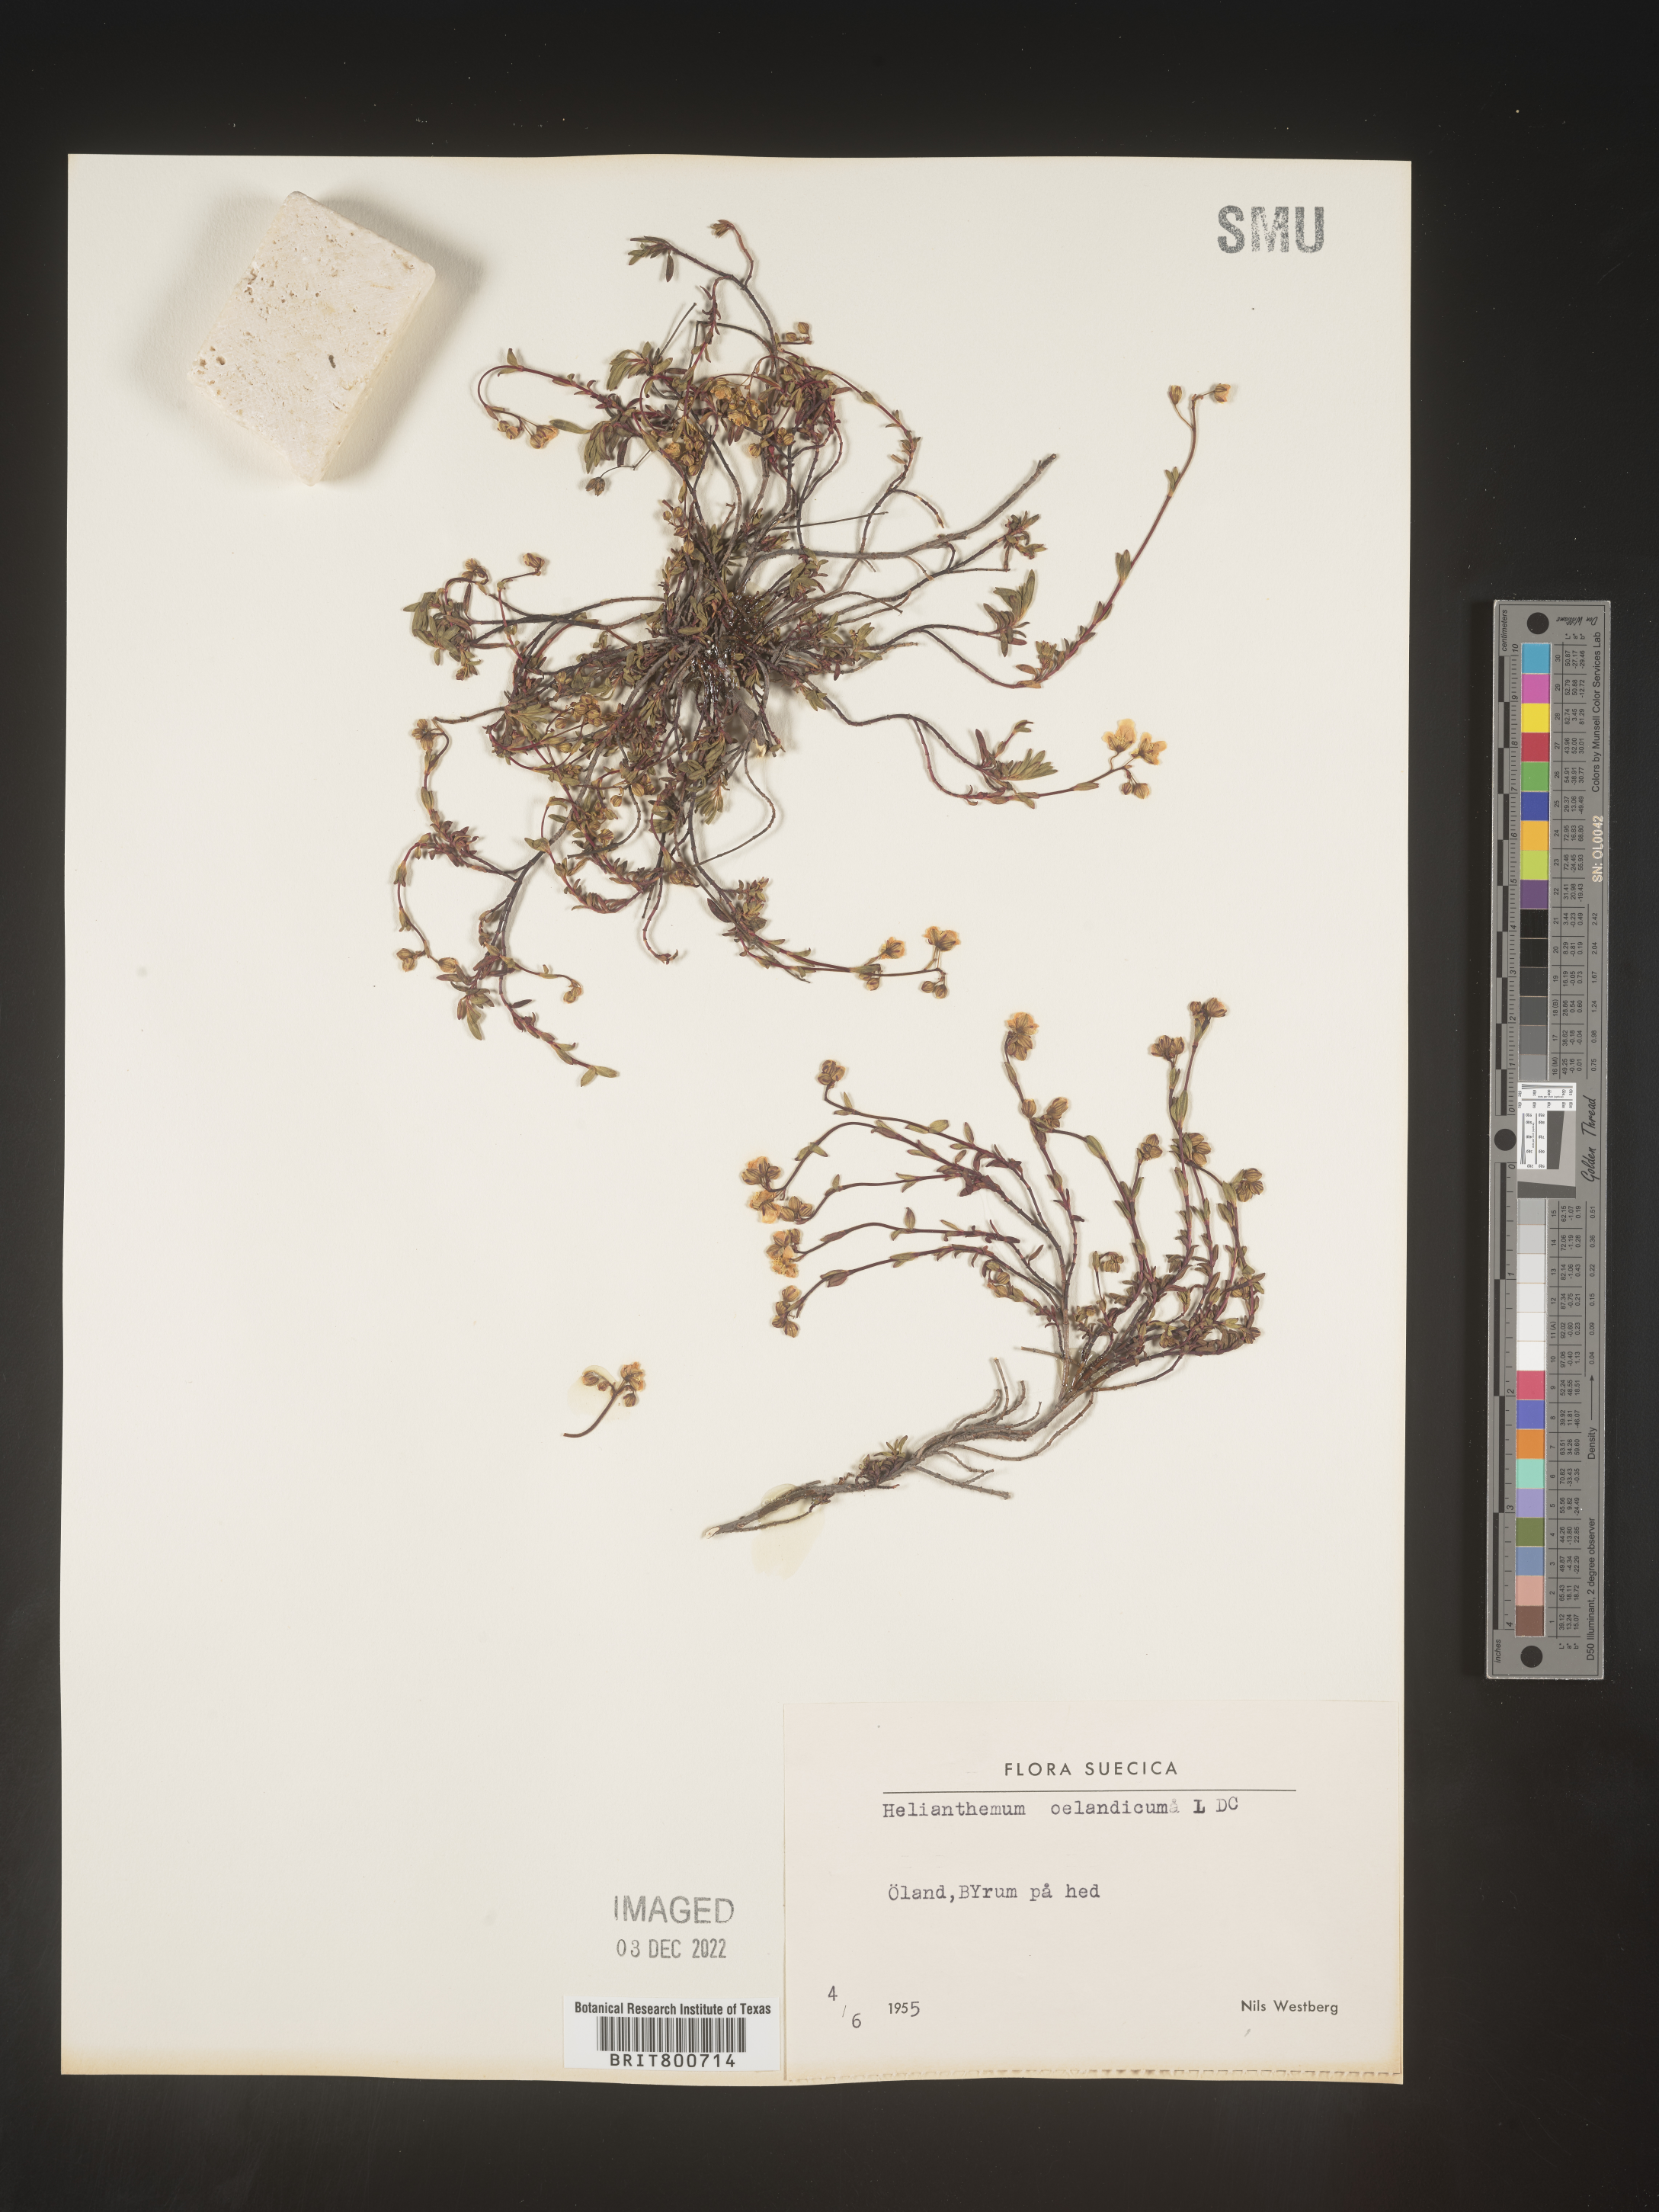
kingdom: Plantae
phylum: Tracheophyta
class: Magnoliopsida
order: Malvales
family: Cistaceae
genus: Helianthemum
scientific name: Helianthemum
